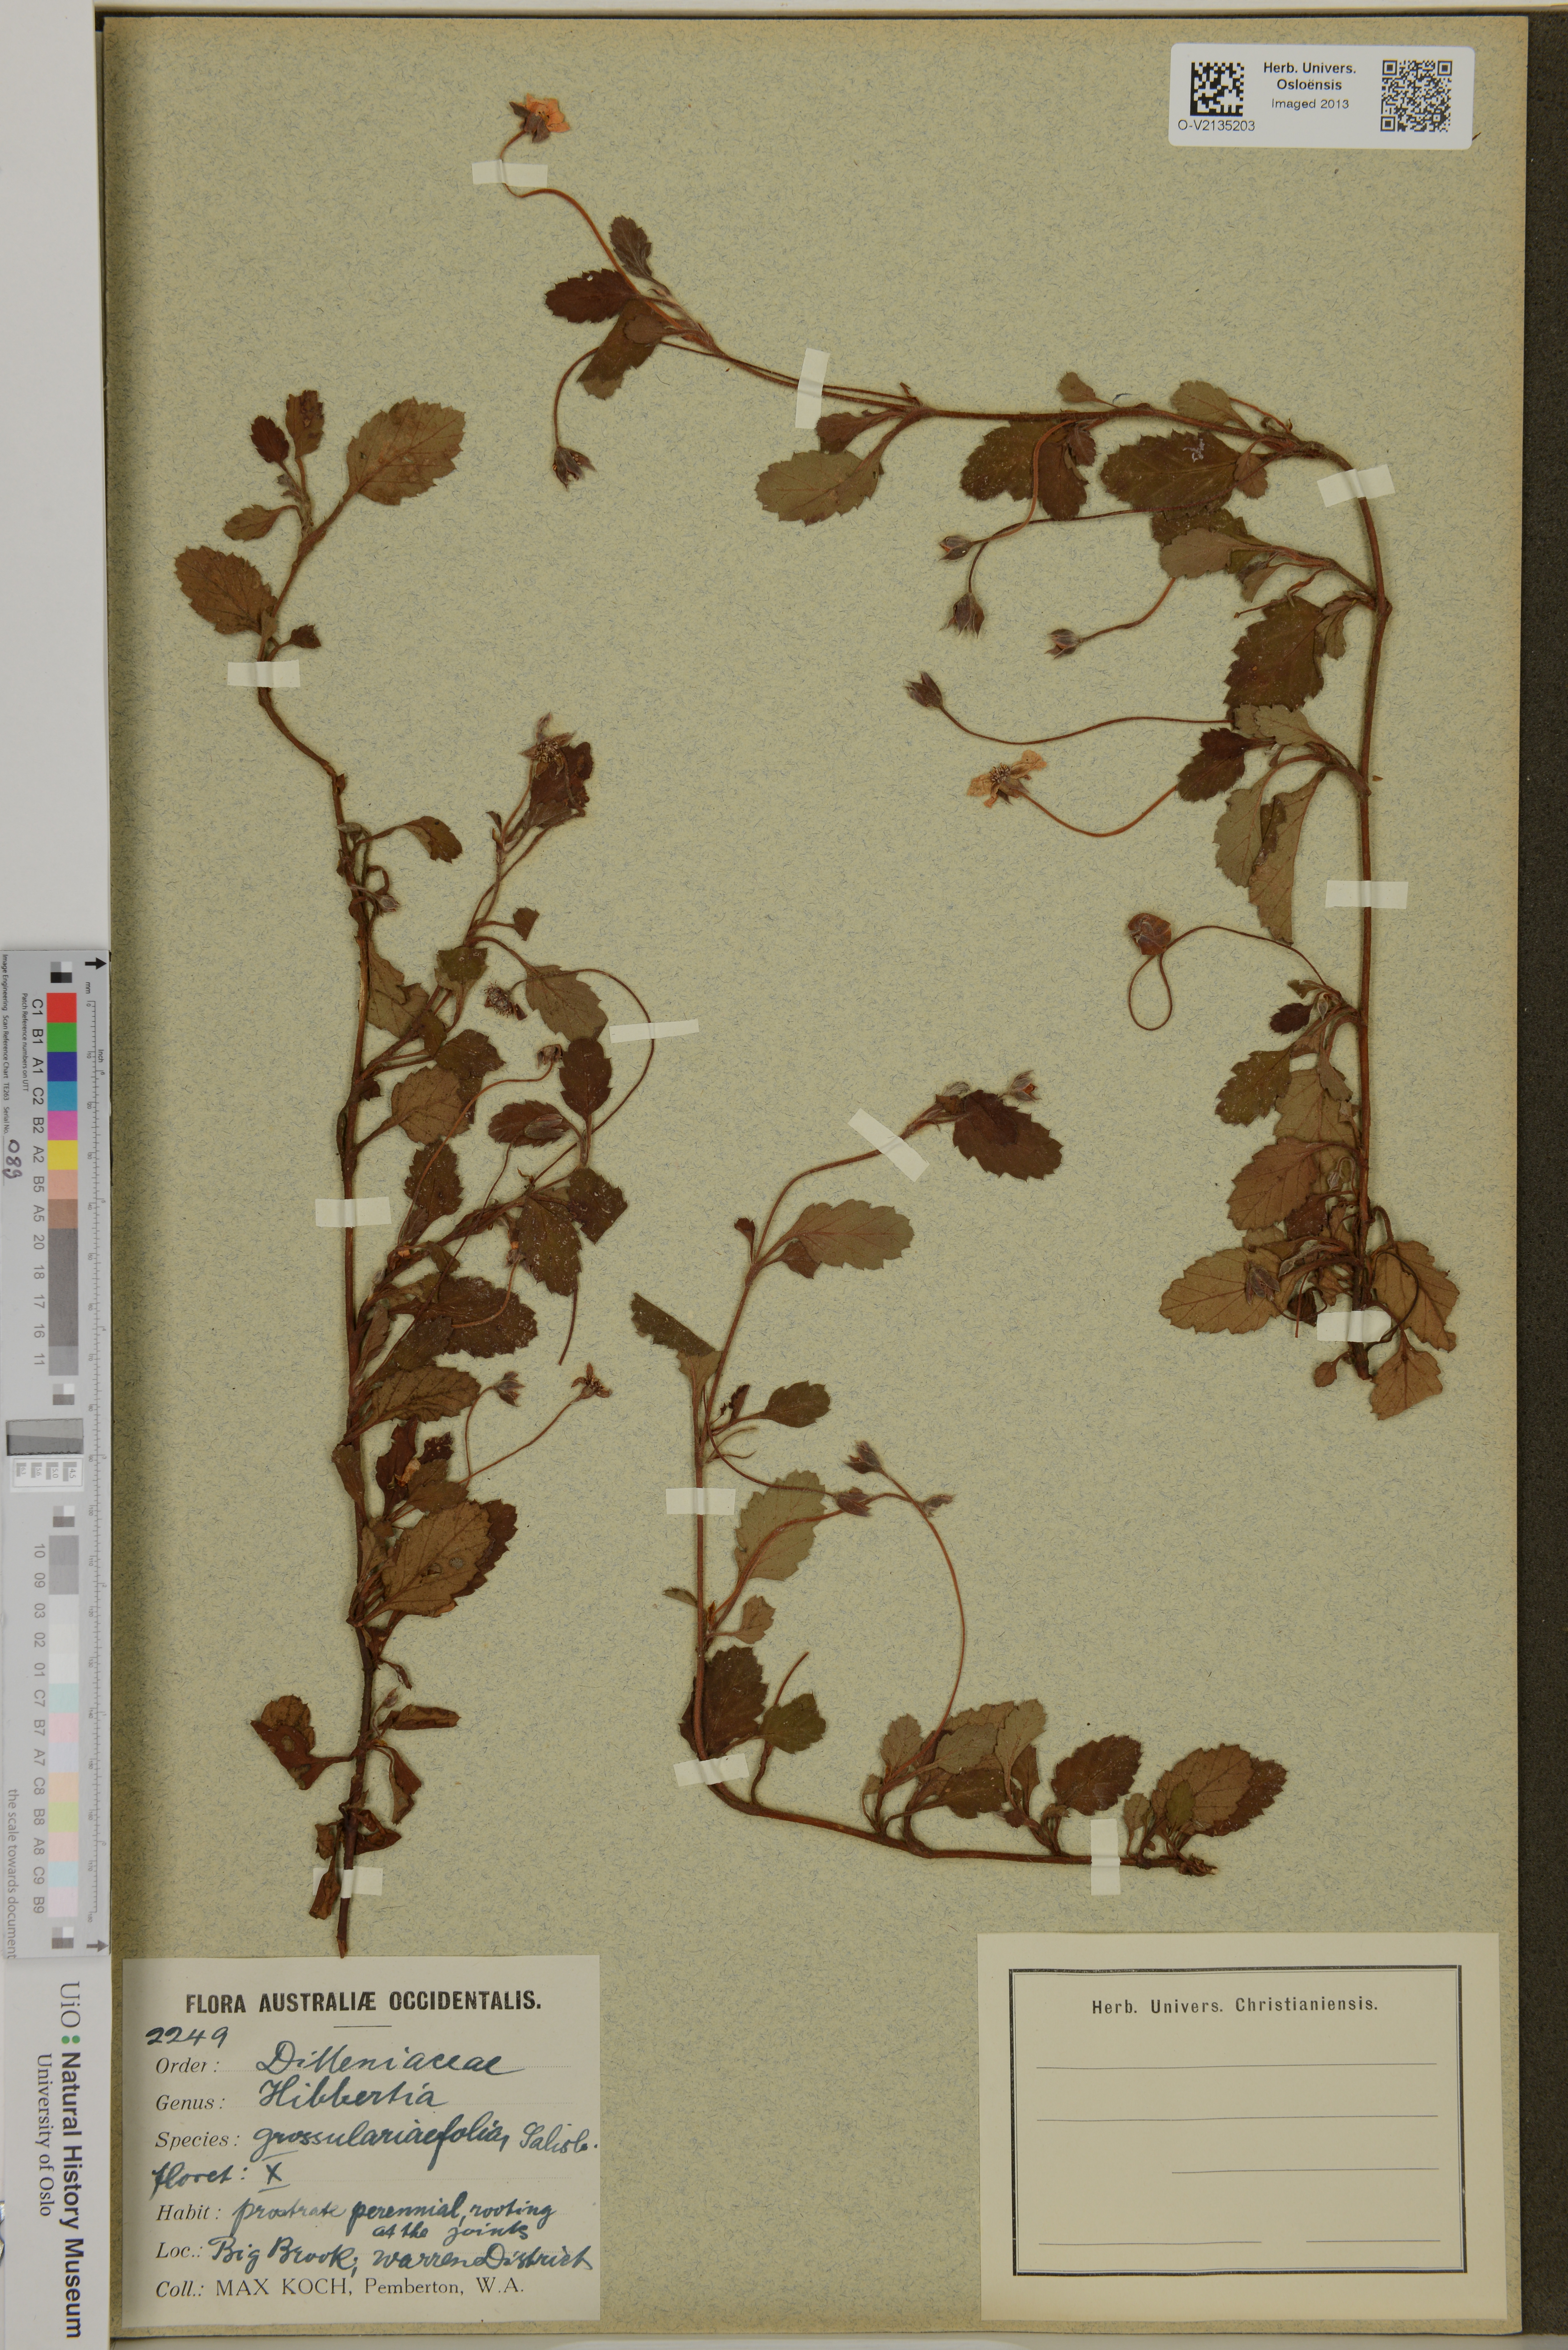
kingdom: Plantae
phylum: Tracheophyta
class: Magnoliopsida
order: Dilleniales
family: Dilleniaceae
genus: Hibbertia
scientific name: Hibbertia grossulariifolia
